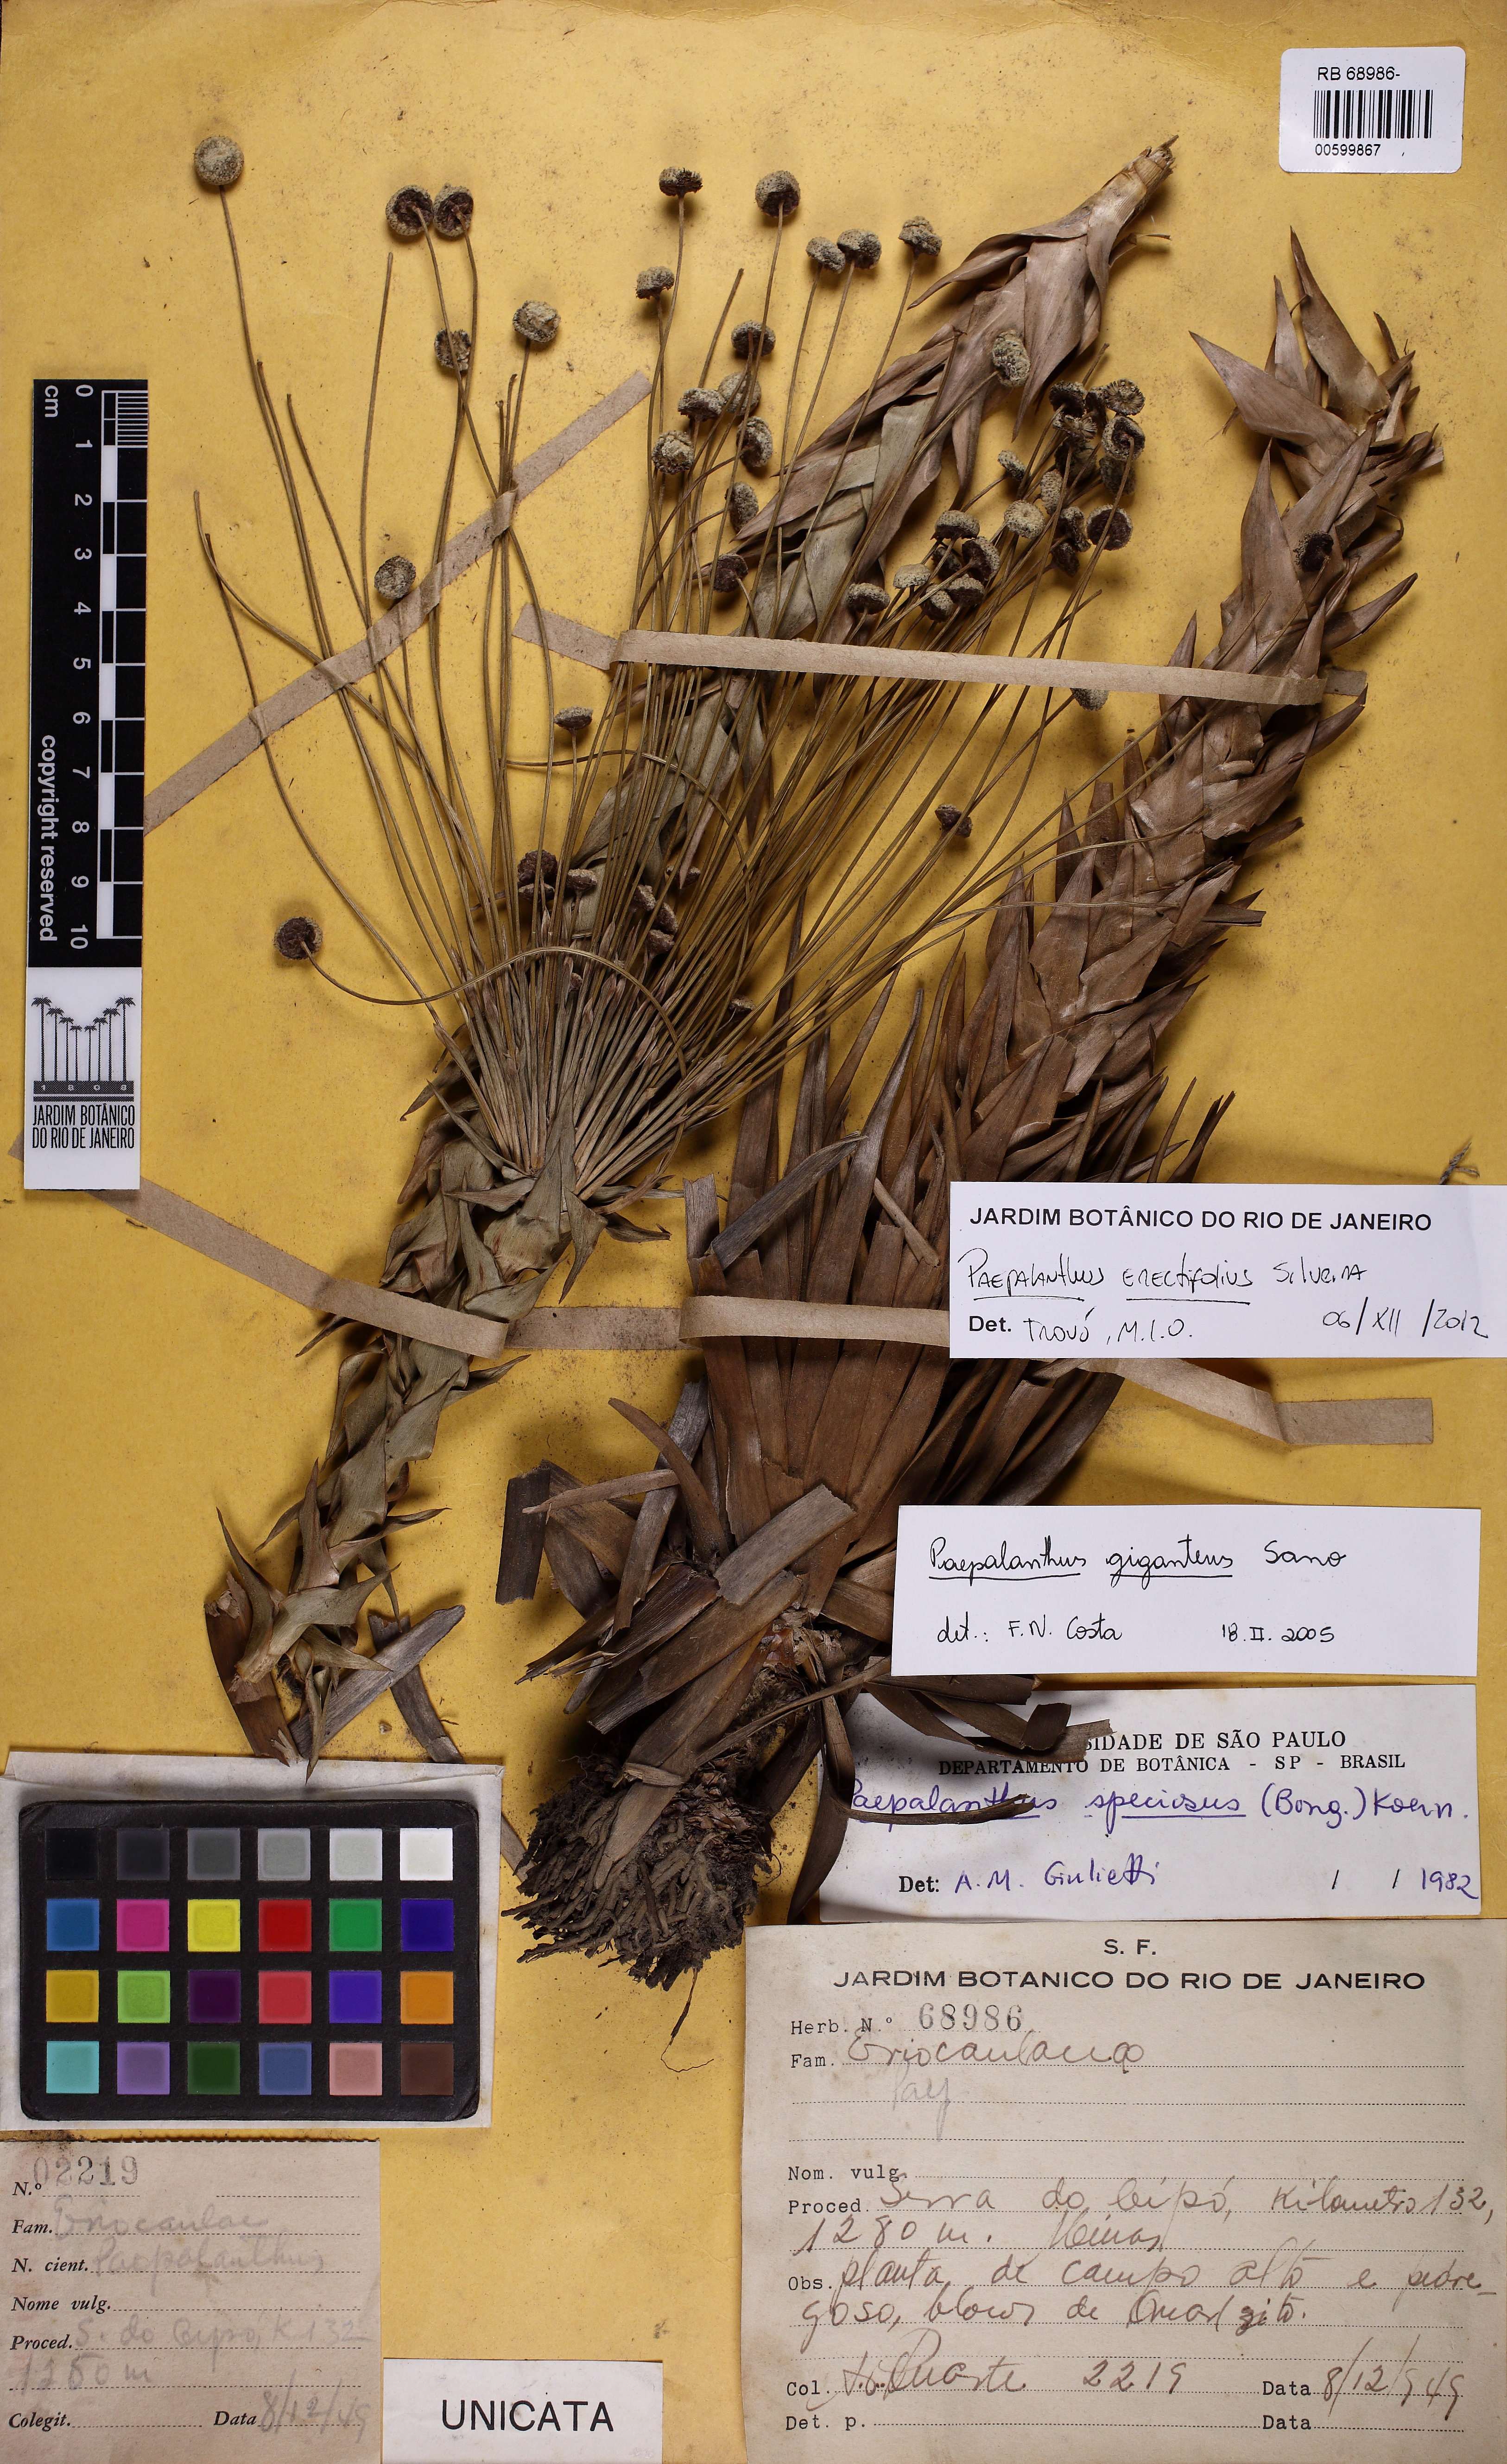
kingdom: Plantae
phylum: Tracheophyta
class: Liliopsida
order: Poales
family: Eriocaulaceae
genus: Paepalanthus
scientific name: Paepalanthus erectifolius
